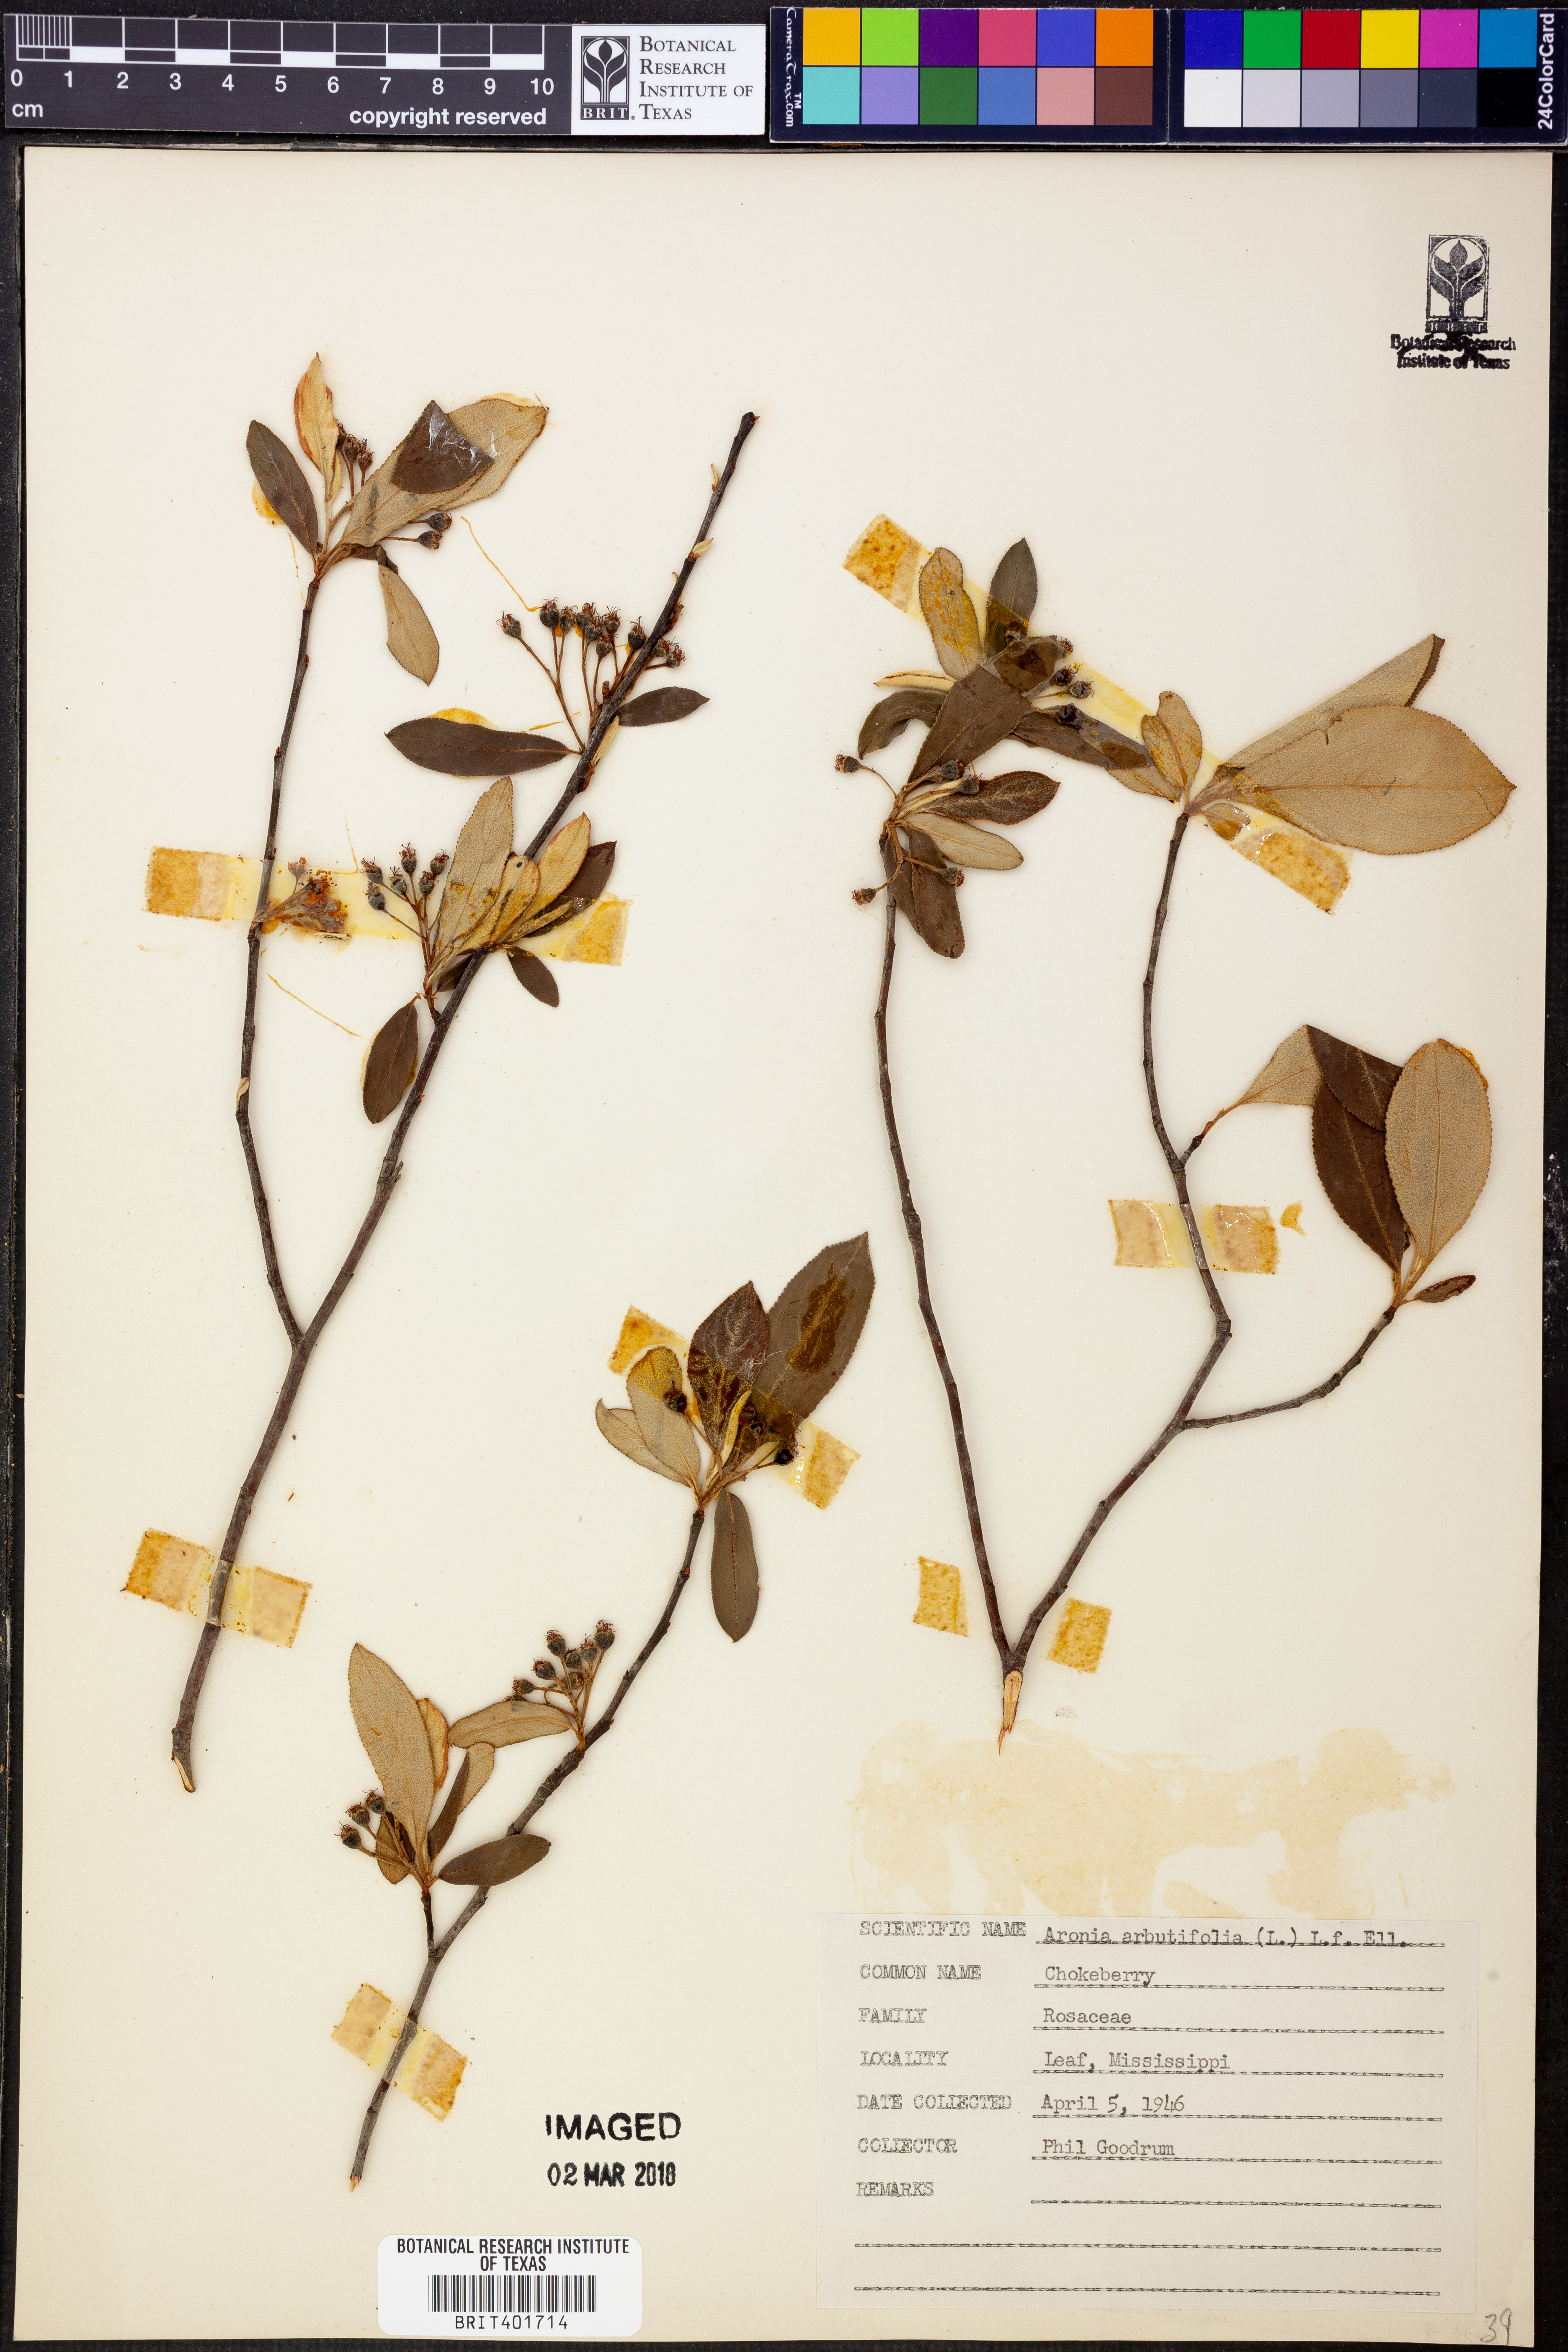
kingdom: Plantae
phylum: Tracheophyta
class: Magnoliopsida
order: Rosales
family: Rosaceae
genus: Aronia
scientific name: Aronia arbutifolia
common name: Red chokeberry
